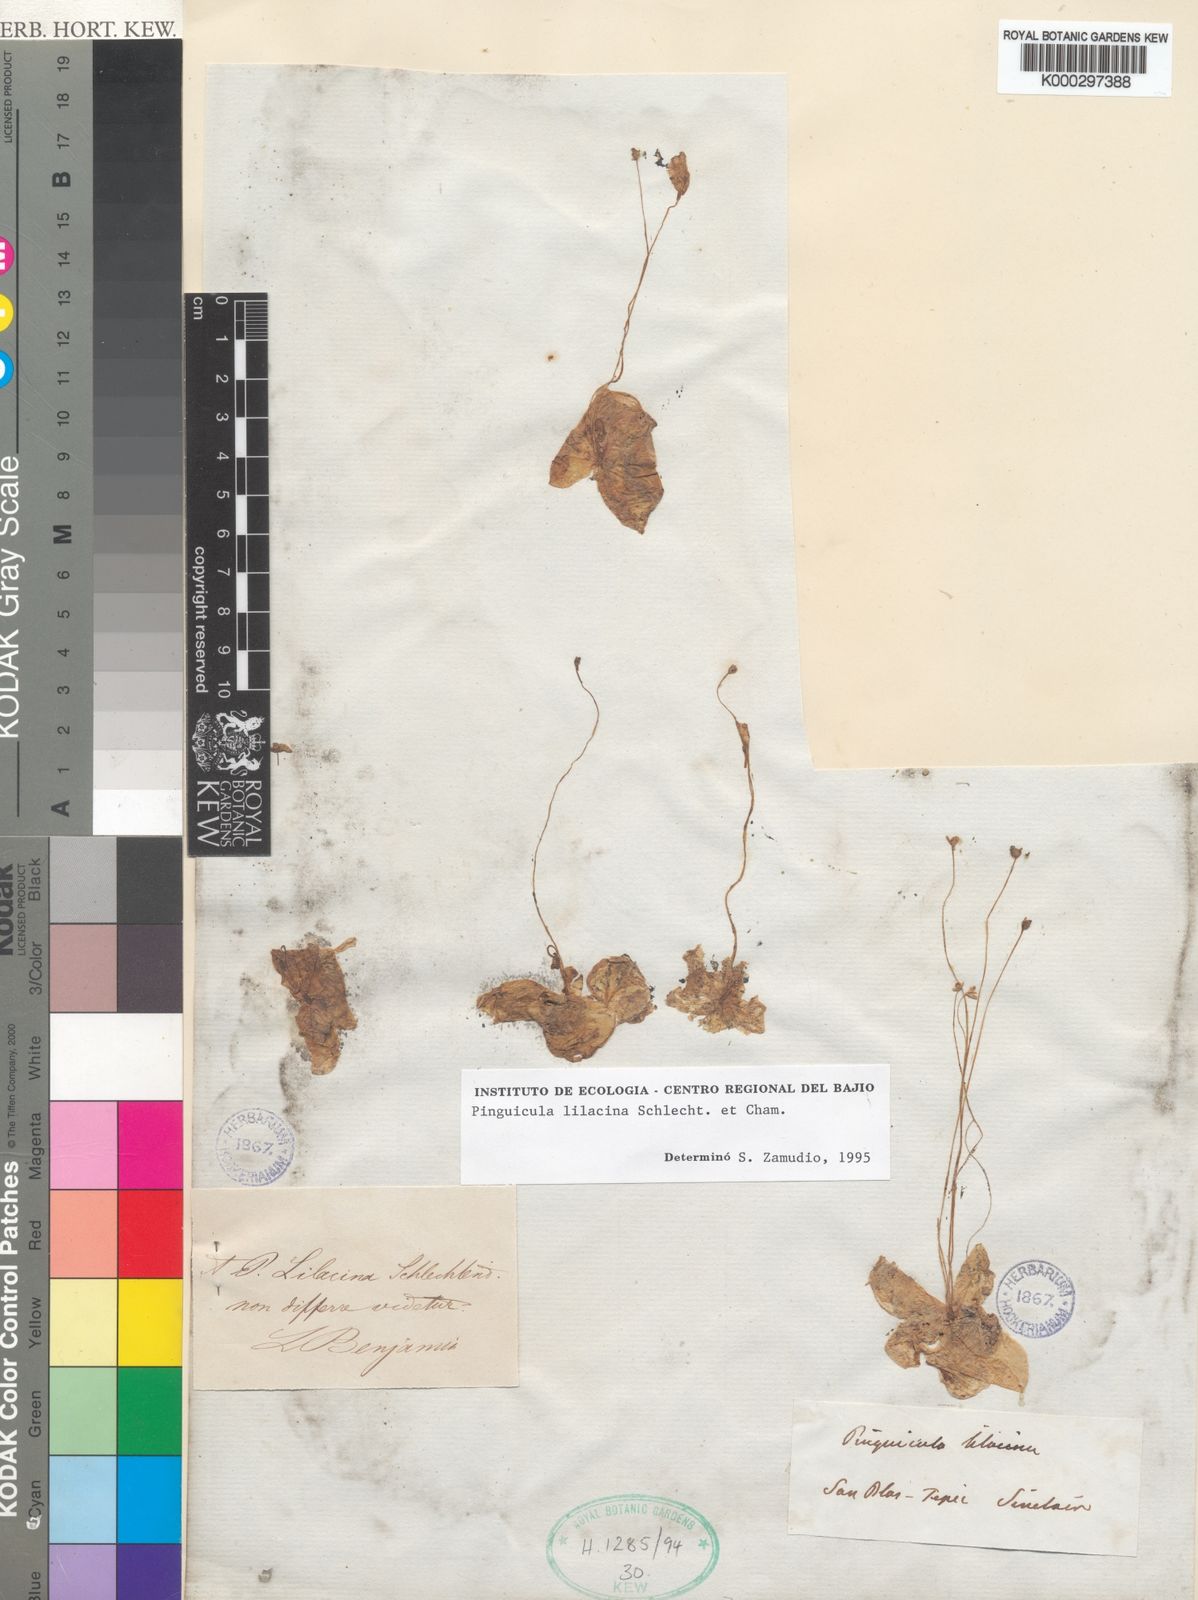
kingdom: Plantae
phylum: Tracheophyta
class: Magnoliopsida
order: Lamiales
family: Lentibulariaceae
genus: Pinguicula
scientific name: Pinguicula lilacina
